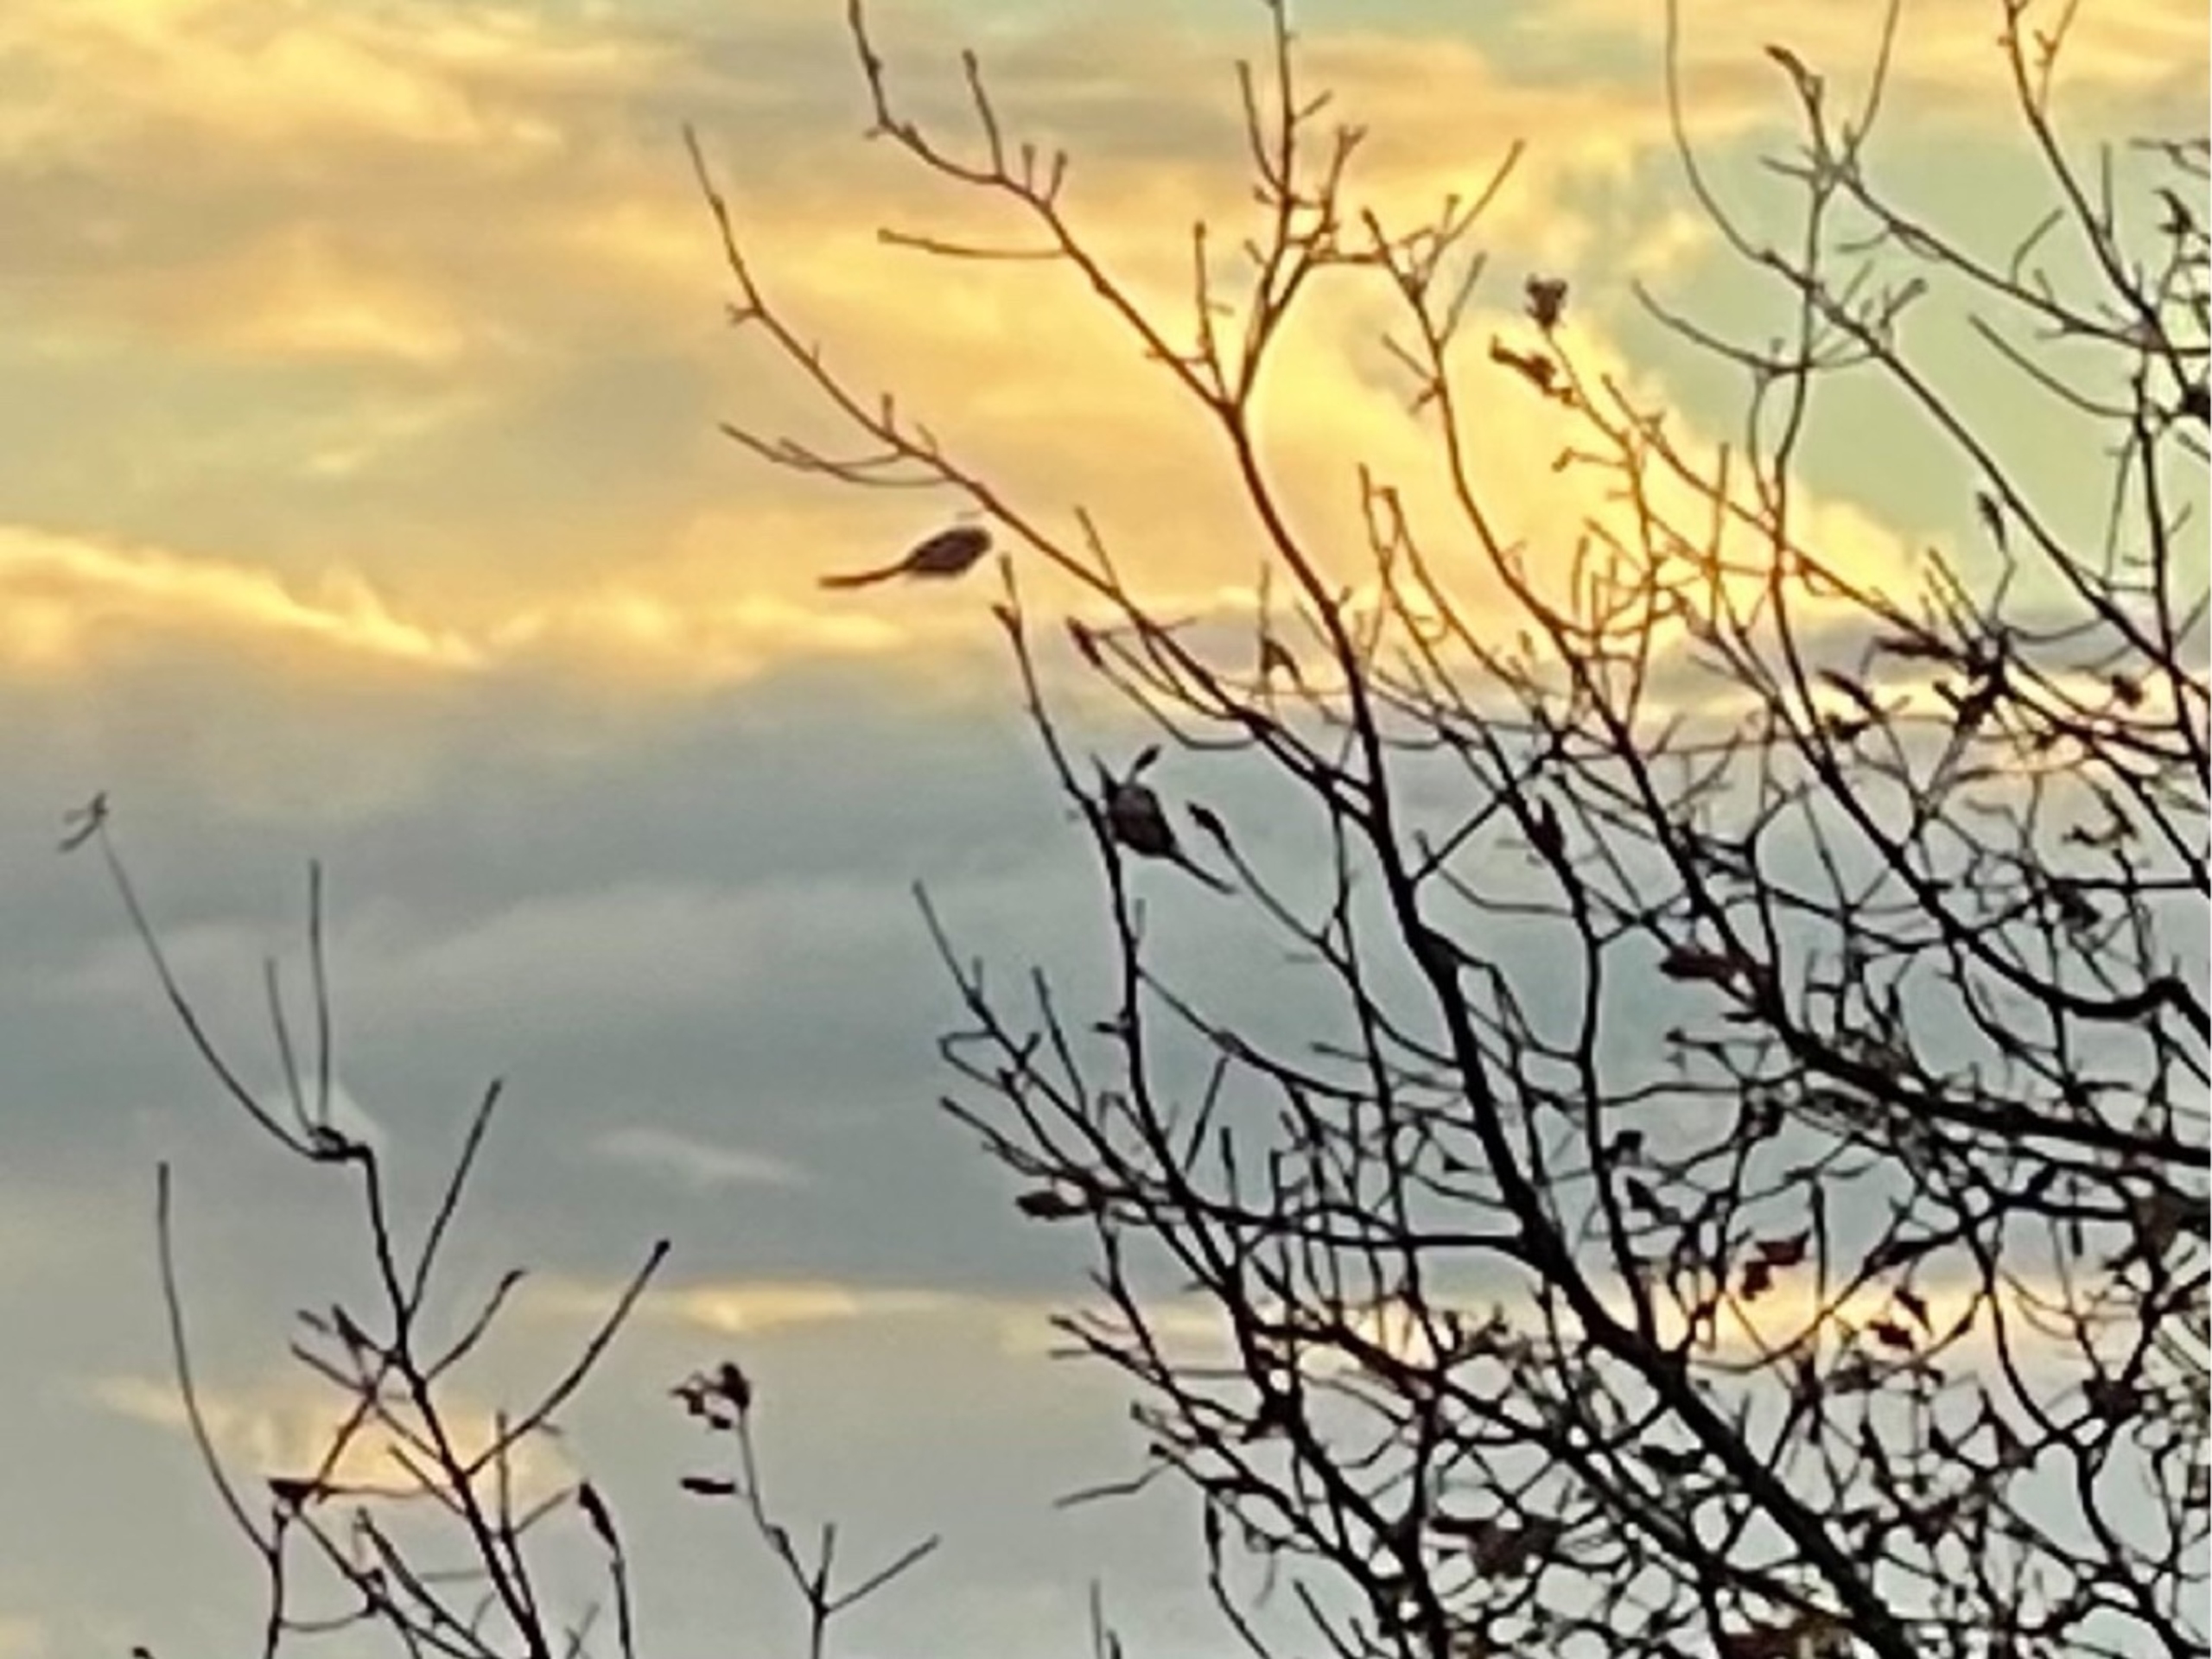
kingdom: Animalia
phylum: Chordata
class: Aves
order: Passeriformes
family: Aegithalidae
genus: Aegithalos
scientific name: Aegithalos caudatus
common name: Halemejse
